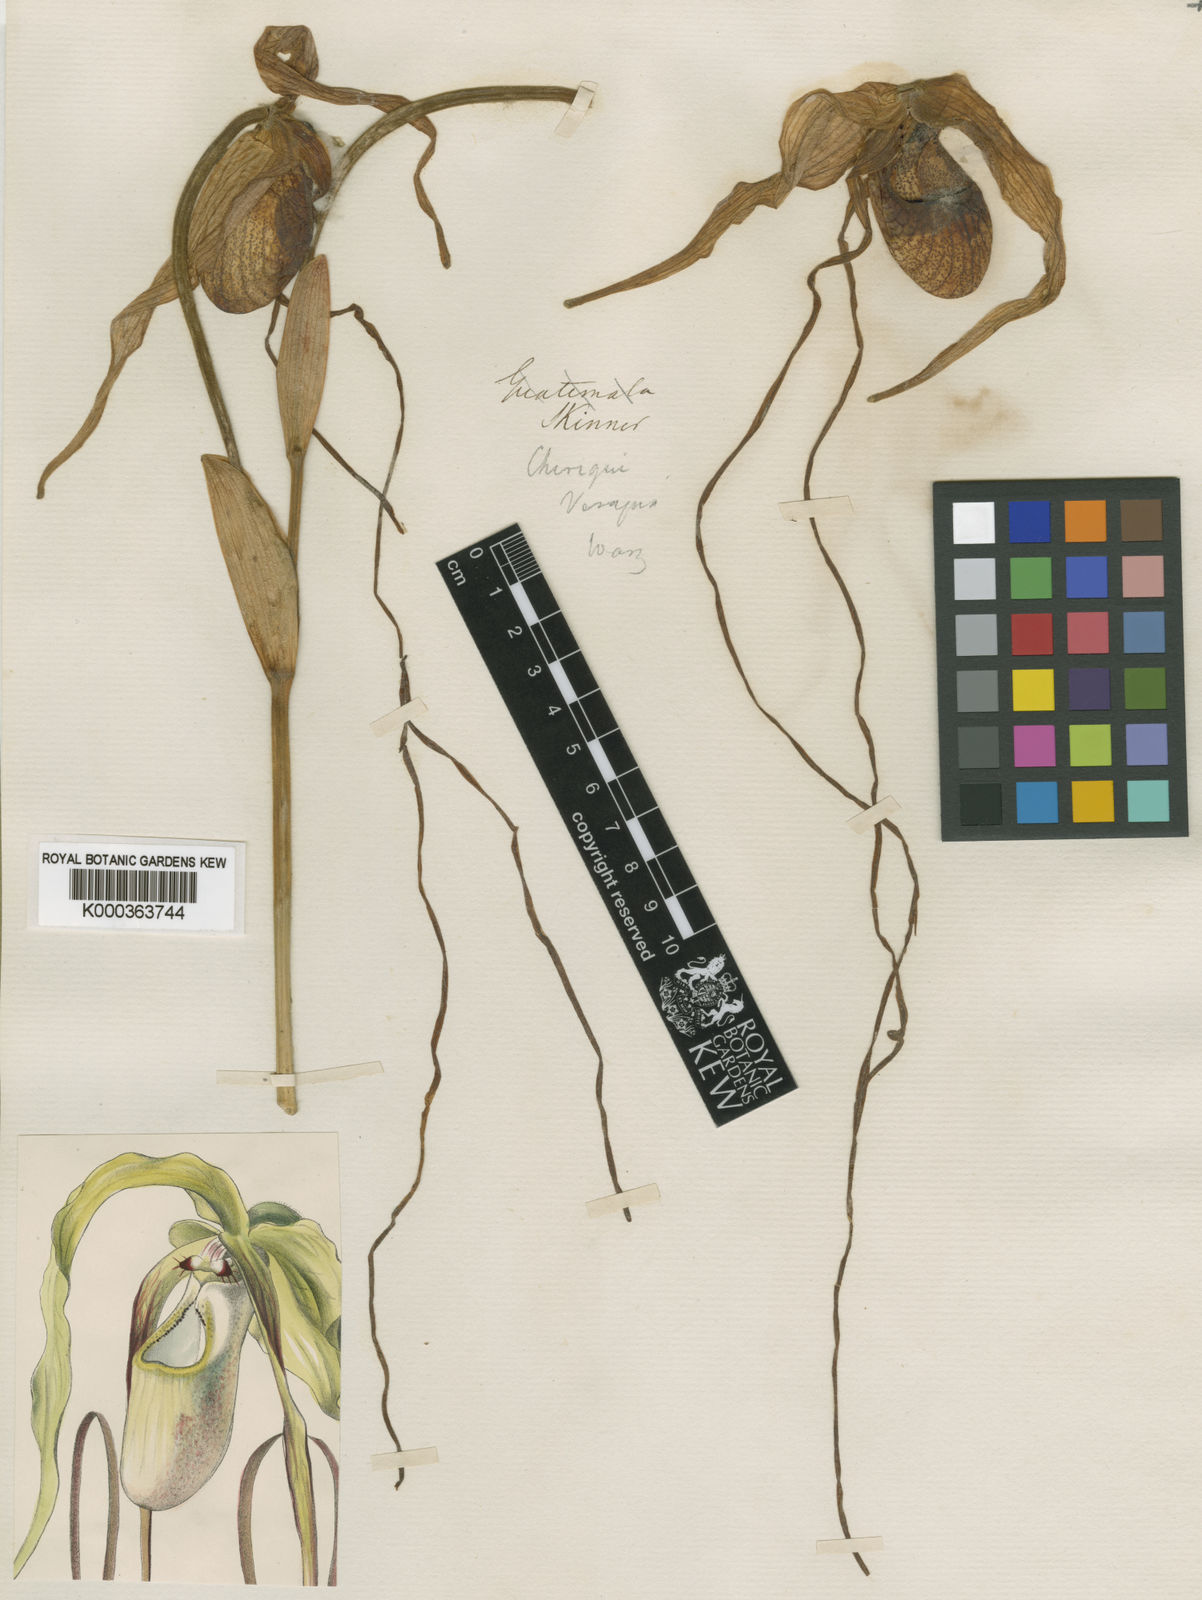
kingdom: Plantae
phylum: Tracheophyta
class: Liliopsida
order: Asparagales
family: Orchidaceae
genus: Phragmipedium
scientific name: Phragmipedium caudatum
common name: Tailed phragmipedium
